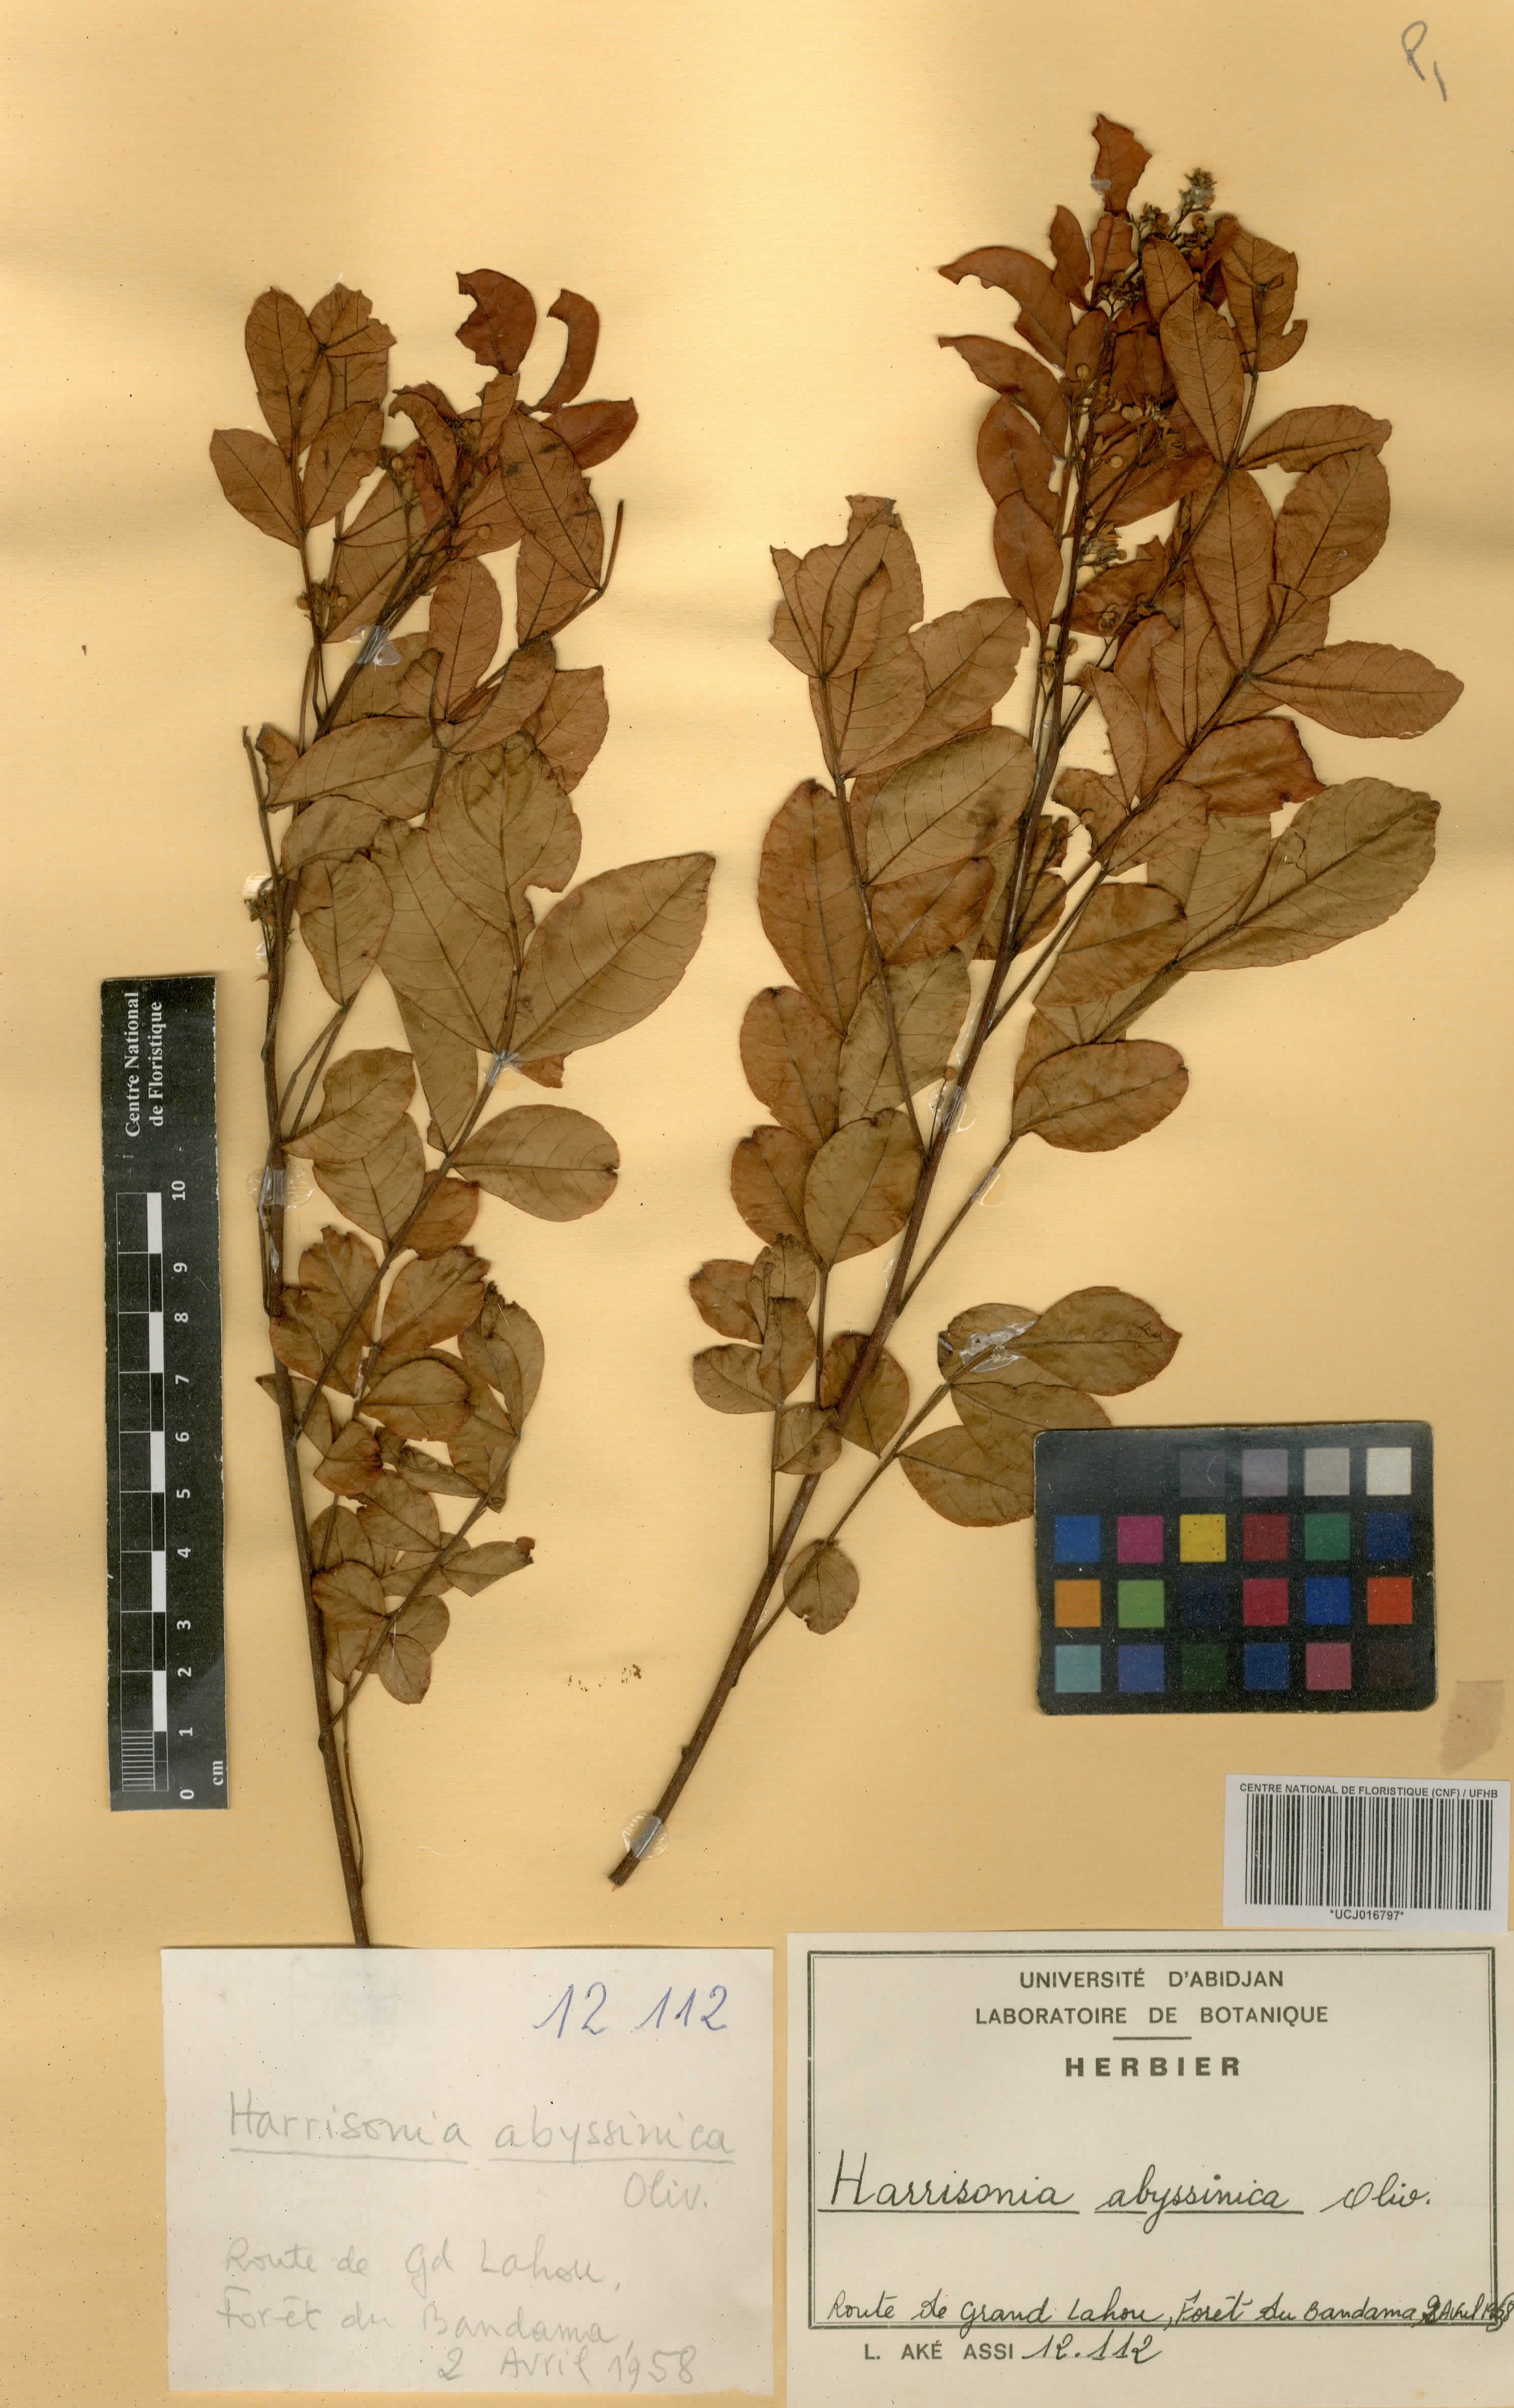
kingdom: Plantae
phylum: Tracheophyta
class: Magnoliopsida
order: Sapindales
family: Rutaceae
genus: Harrisonia
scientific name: Harrisonia abyssinica
